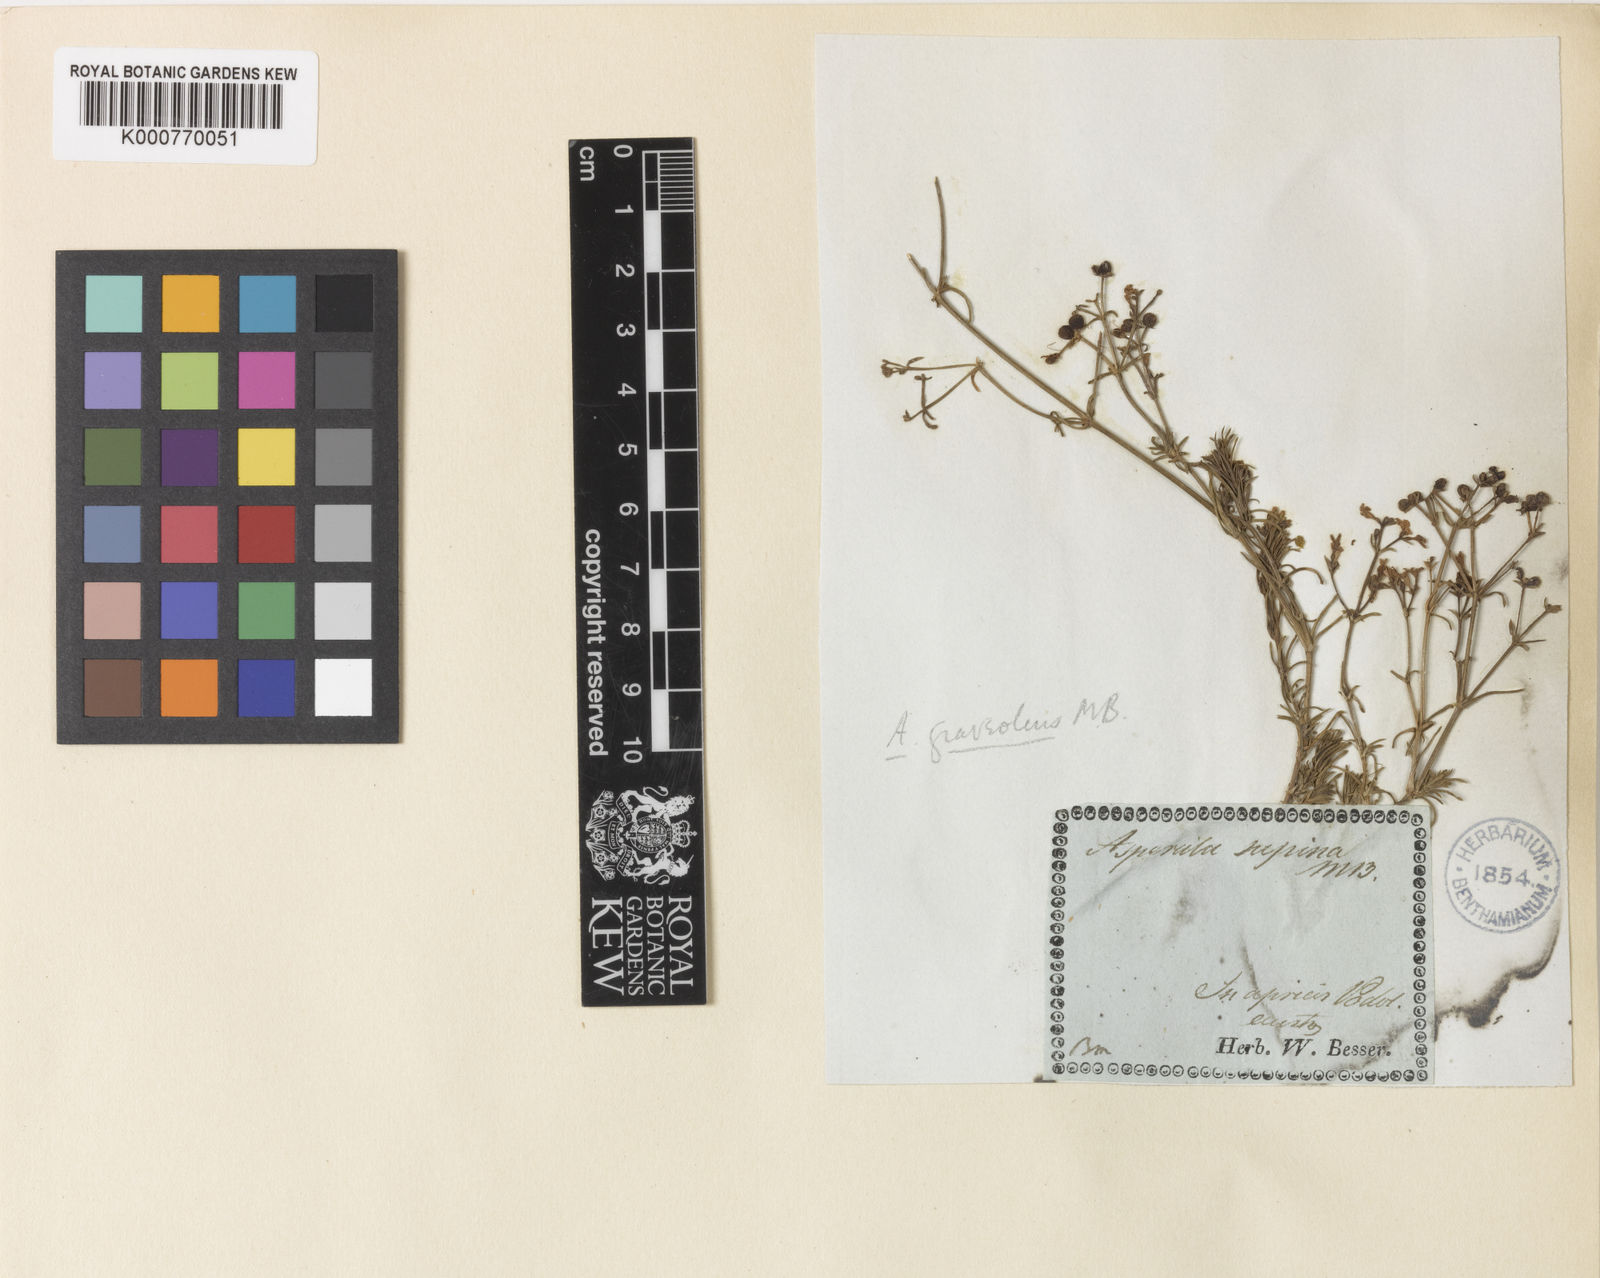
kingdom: Plantae
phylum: Tracheophyta
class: Magnoliopsida
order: Gentianales
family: Rubiaceae
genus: Asperula
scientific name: Asperula
